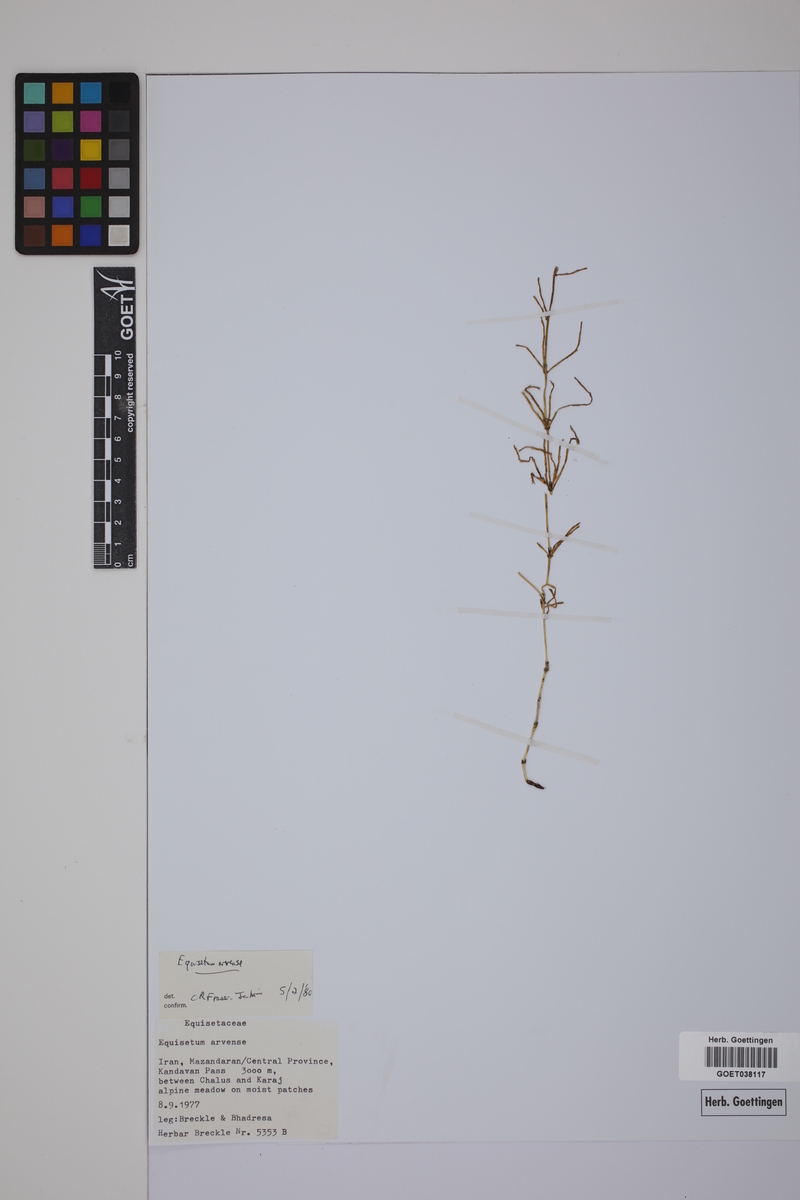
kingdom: Plantae
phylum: Tracheophyta
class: Polypodiopsida
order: Equisetales
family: Equisetaceae
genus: Equisetum
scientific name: Equisetum arvense
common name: Field horsetail
